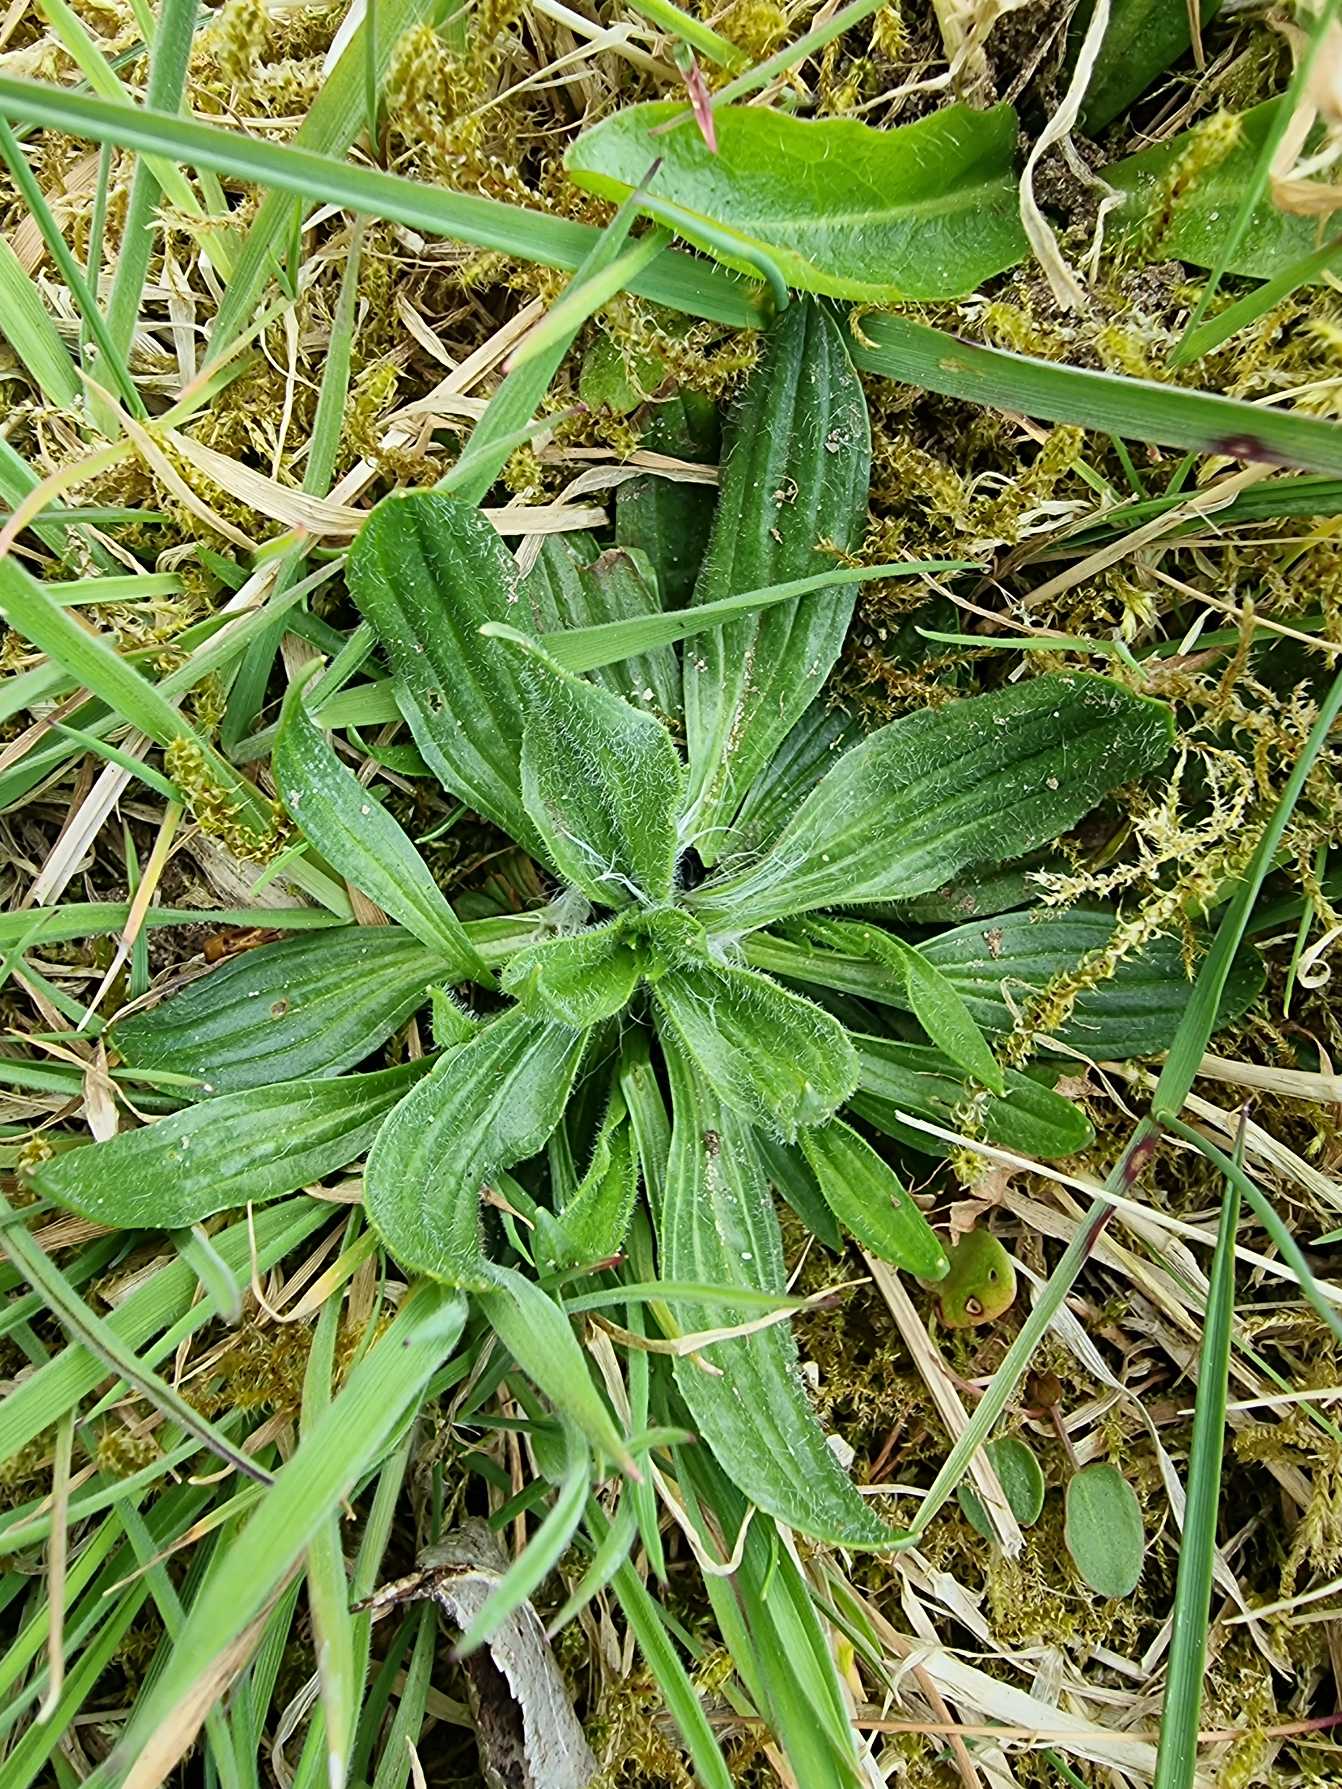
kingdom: Plantae
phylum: Tracheophyta
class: Magnoliopsida
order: Lamiales
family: Plantaginaceae
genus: Plantago
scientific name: Plantago lanceolata
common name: Lancet-vejbred
